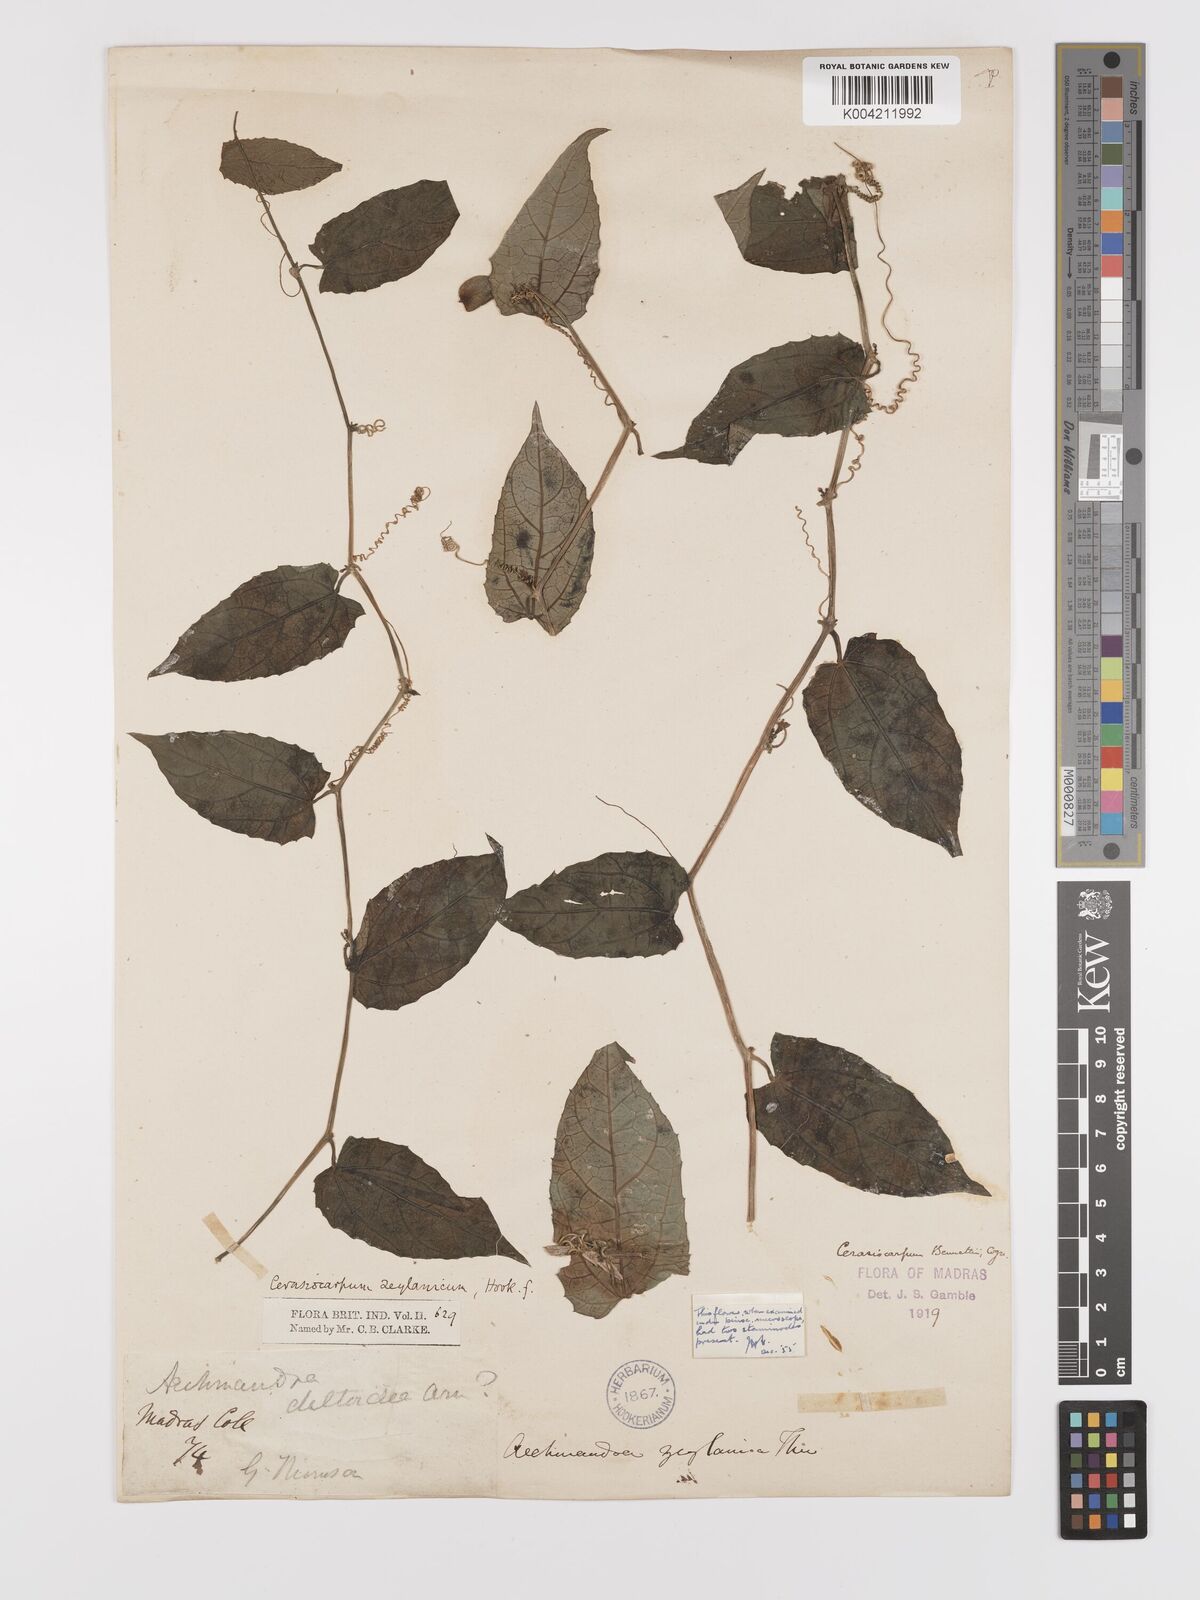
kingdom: Plantae
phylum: Tracheophyta
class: Magnoliopsida
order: Cucurbitales
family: Cucurbitaceae
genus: Kedrostis
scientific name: Kedrostis courtallensis
